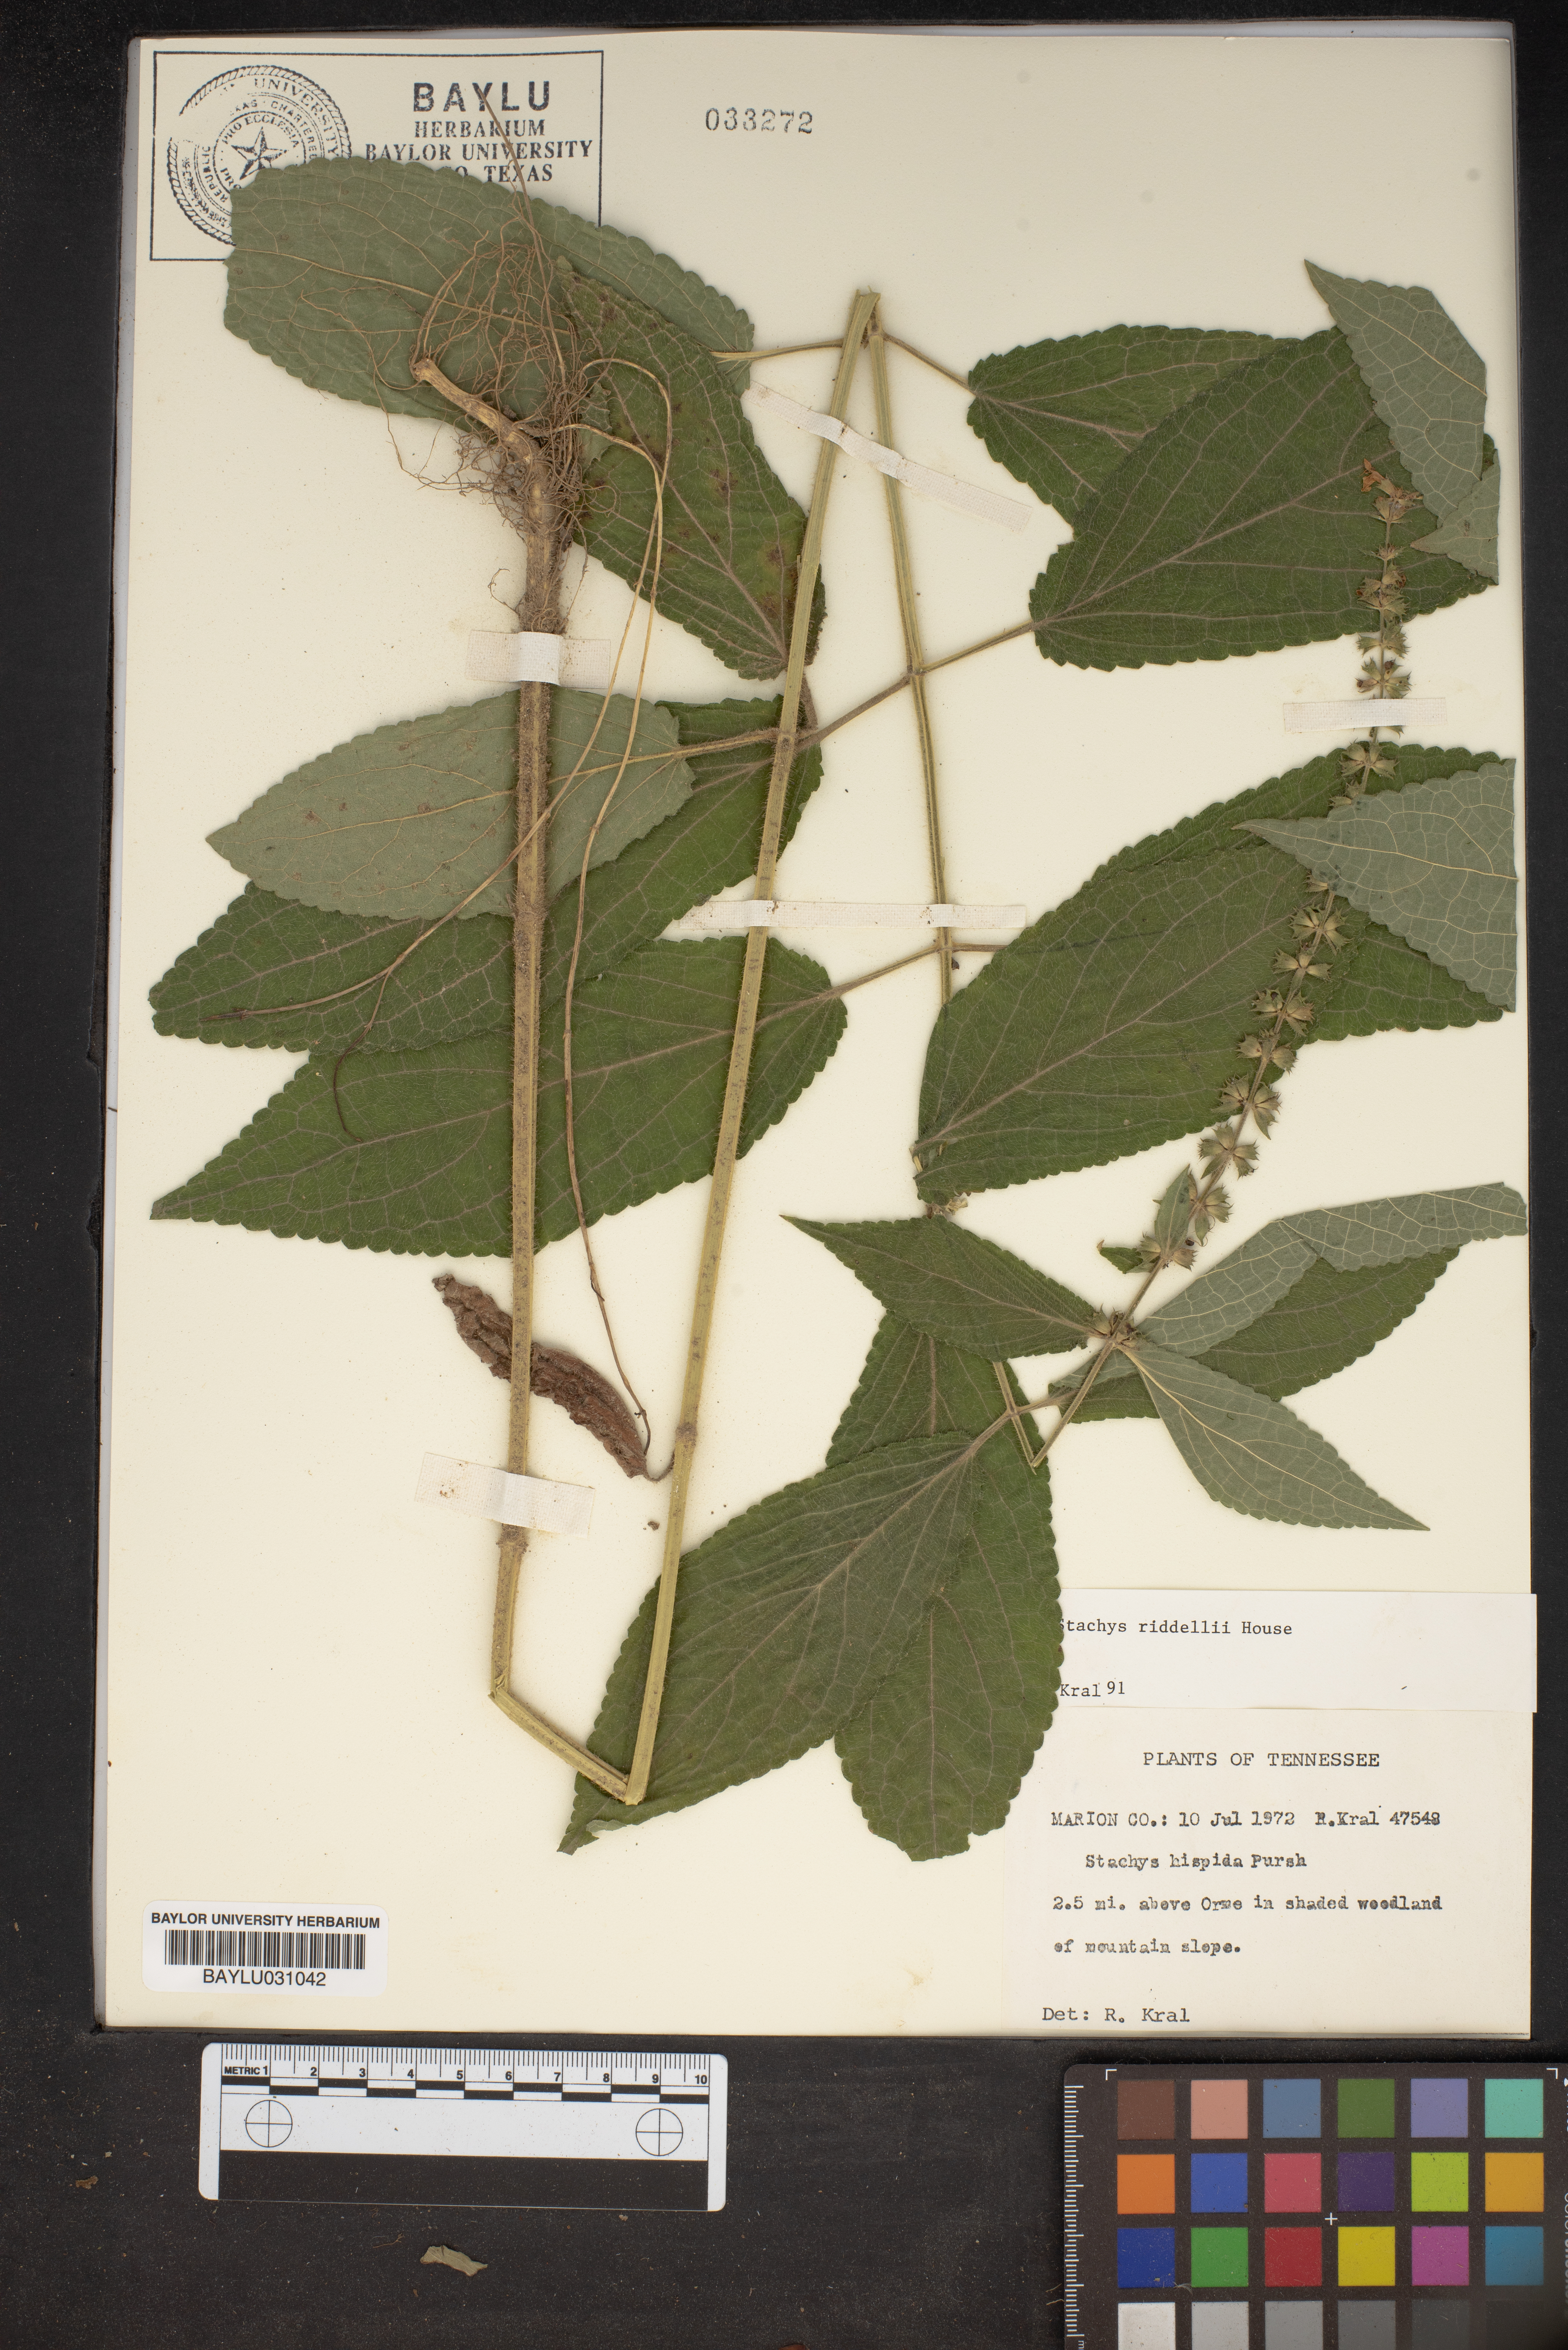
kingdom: Plantae
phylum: Tracheophyta
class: Magnoliopsida
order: Lamiales
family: Lamiaceae
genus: Stachys
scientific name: Stachys hispida
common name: Hispid hedge-nettle
